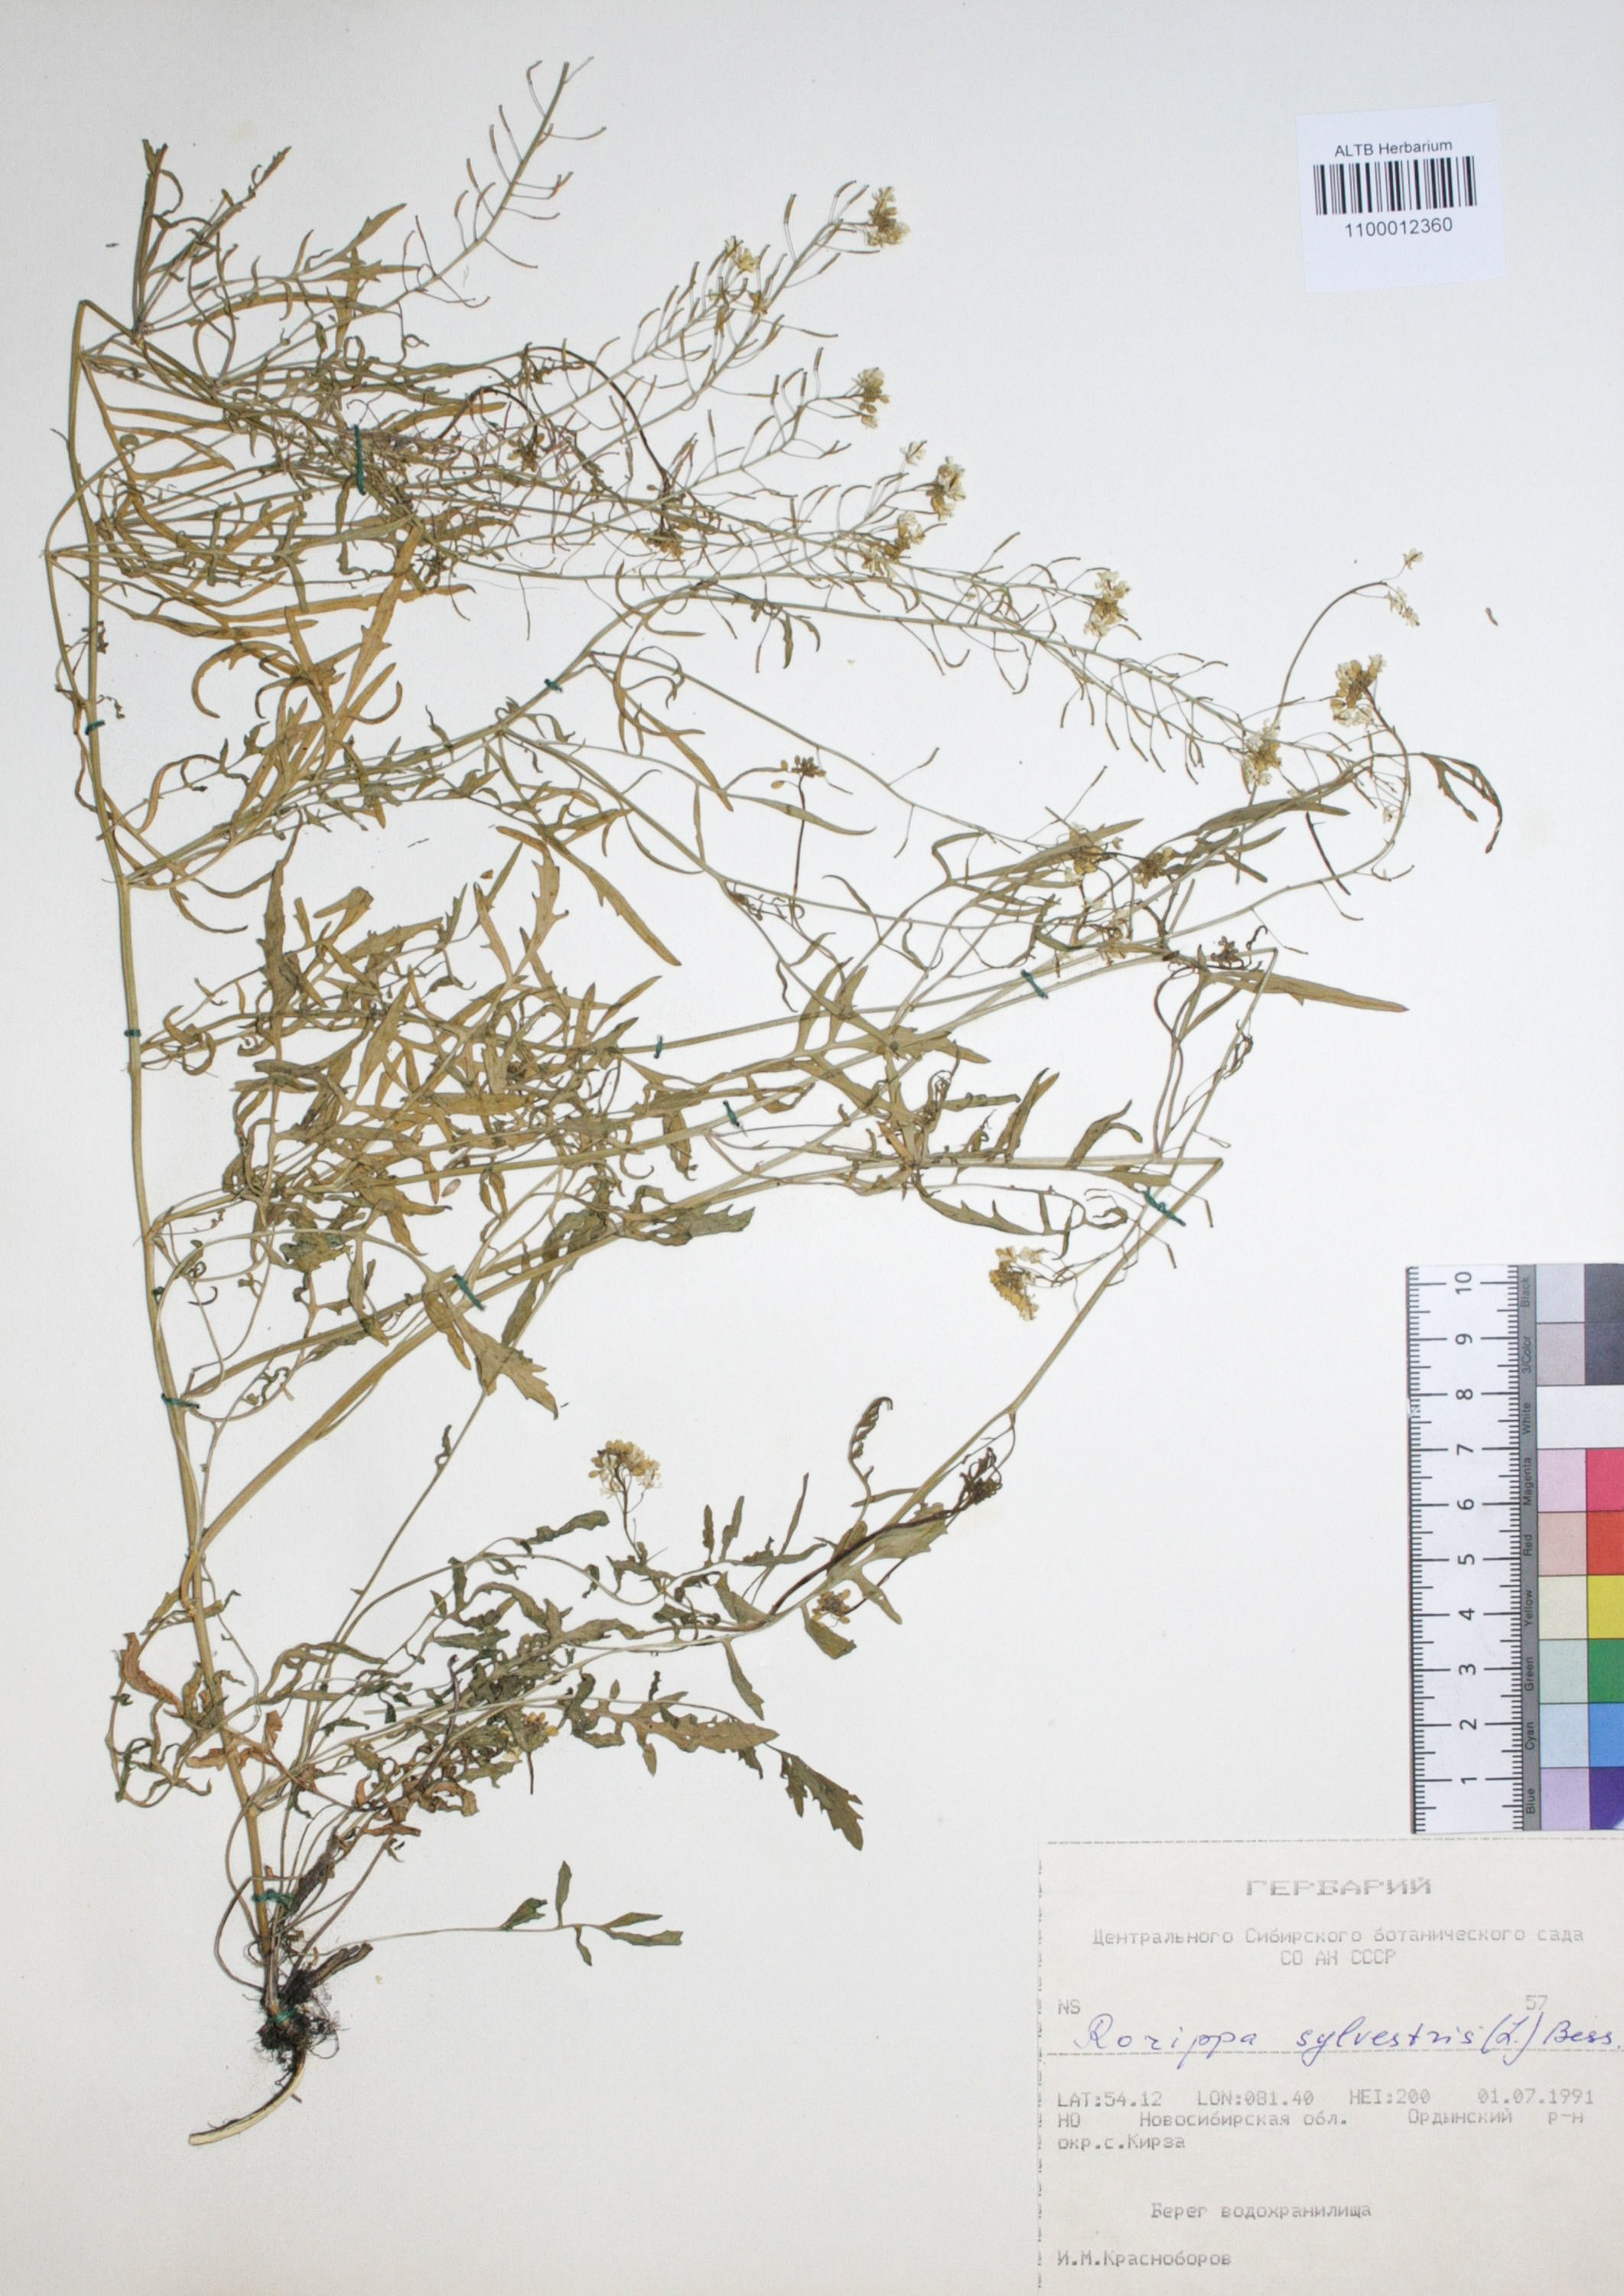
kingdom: Plantae
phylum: Tracheophyta
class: Magnoliopsida
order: Brassicales
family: Brassicaceae
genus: Rorippa
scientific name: Rorippa sylvestris
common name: Creeping yellowcress
